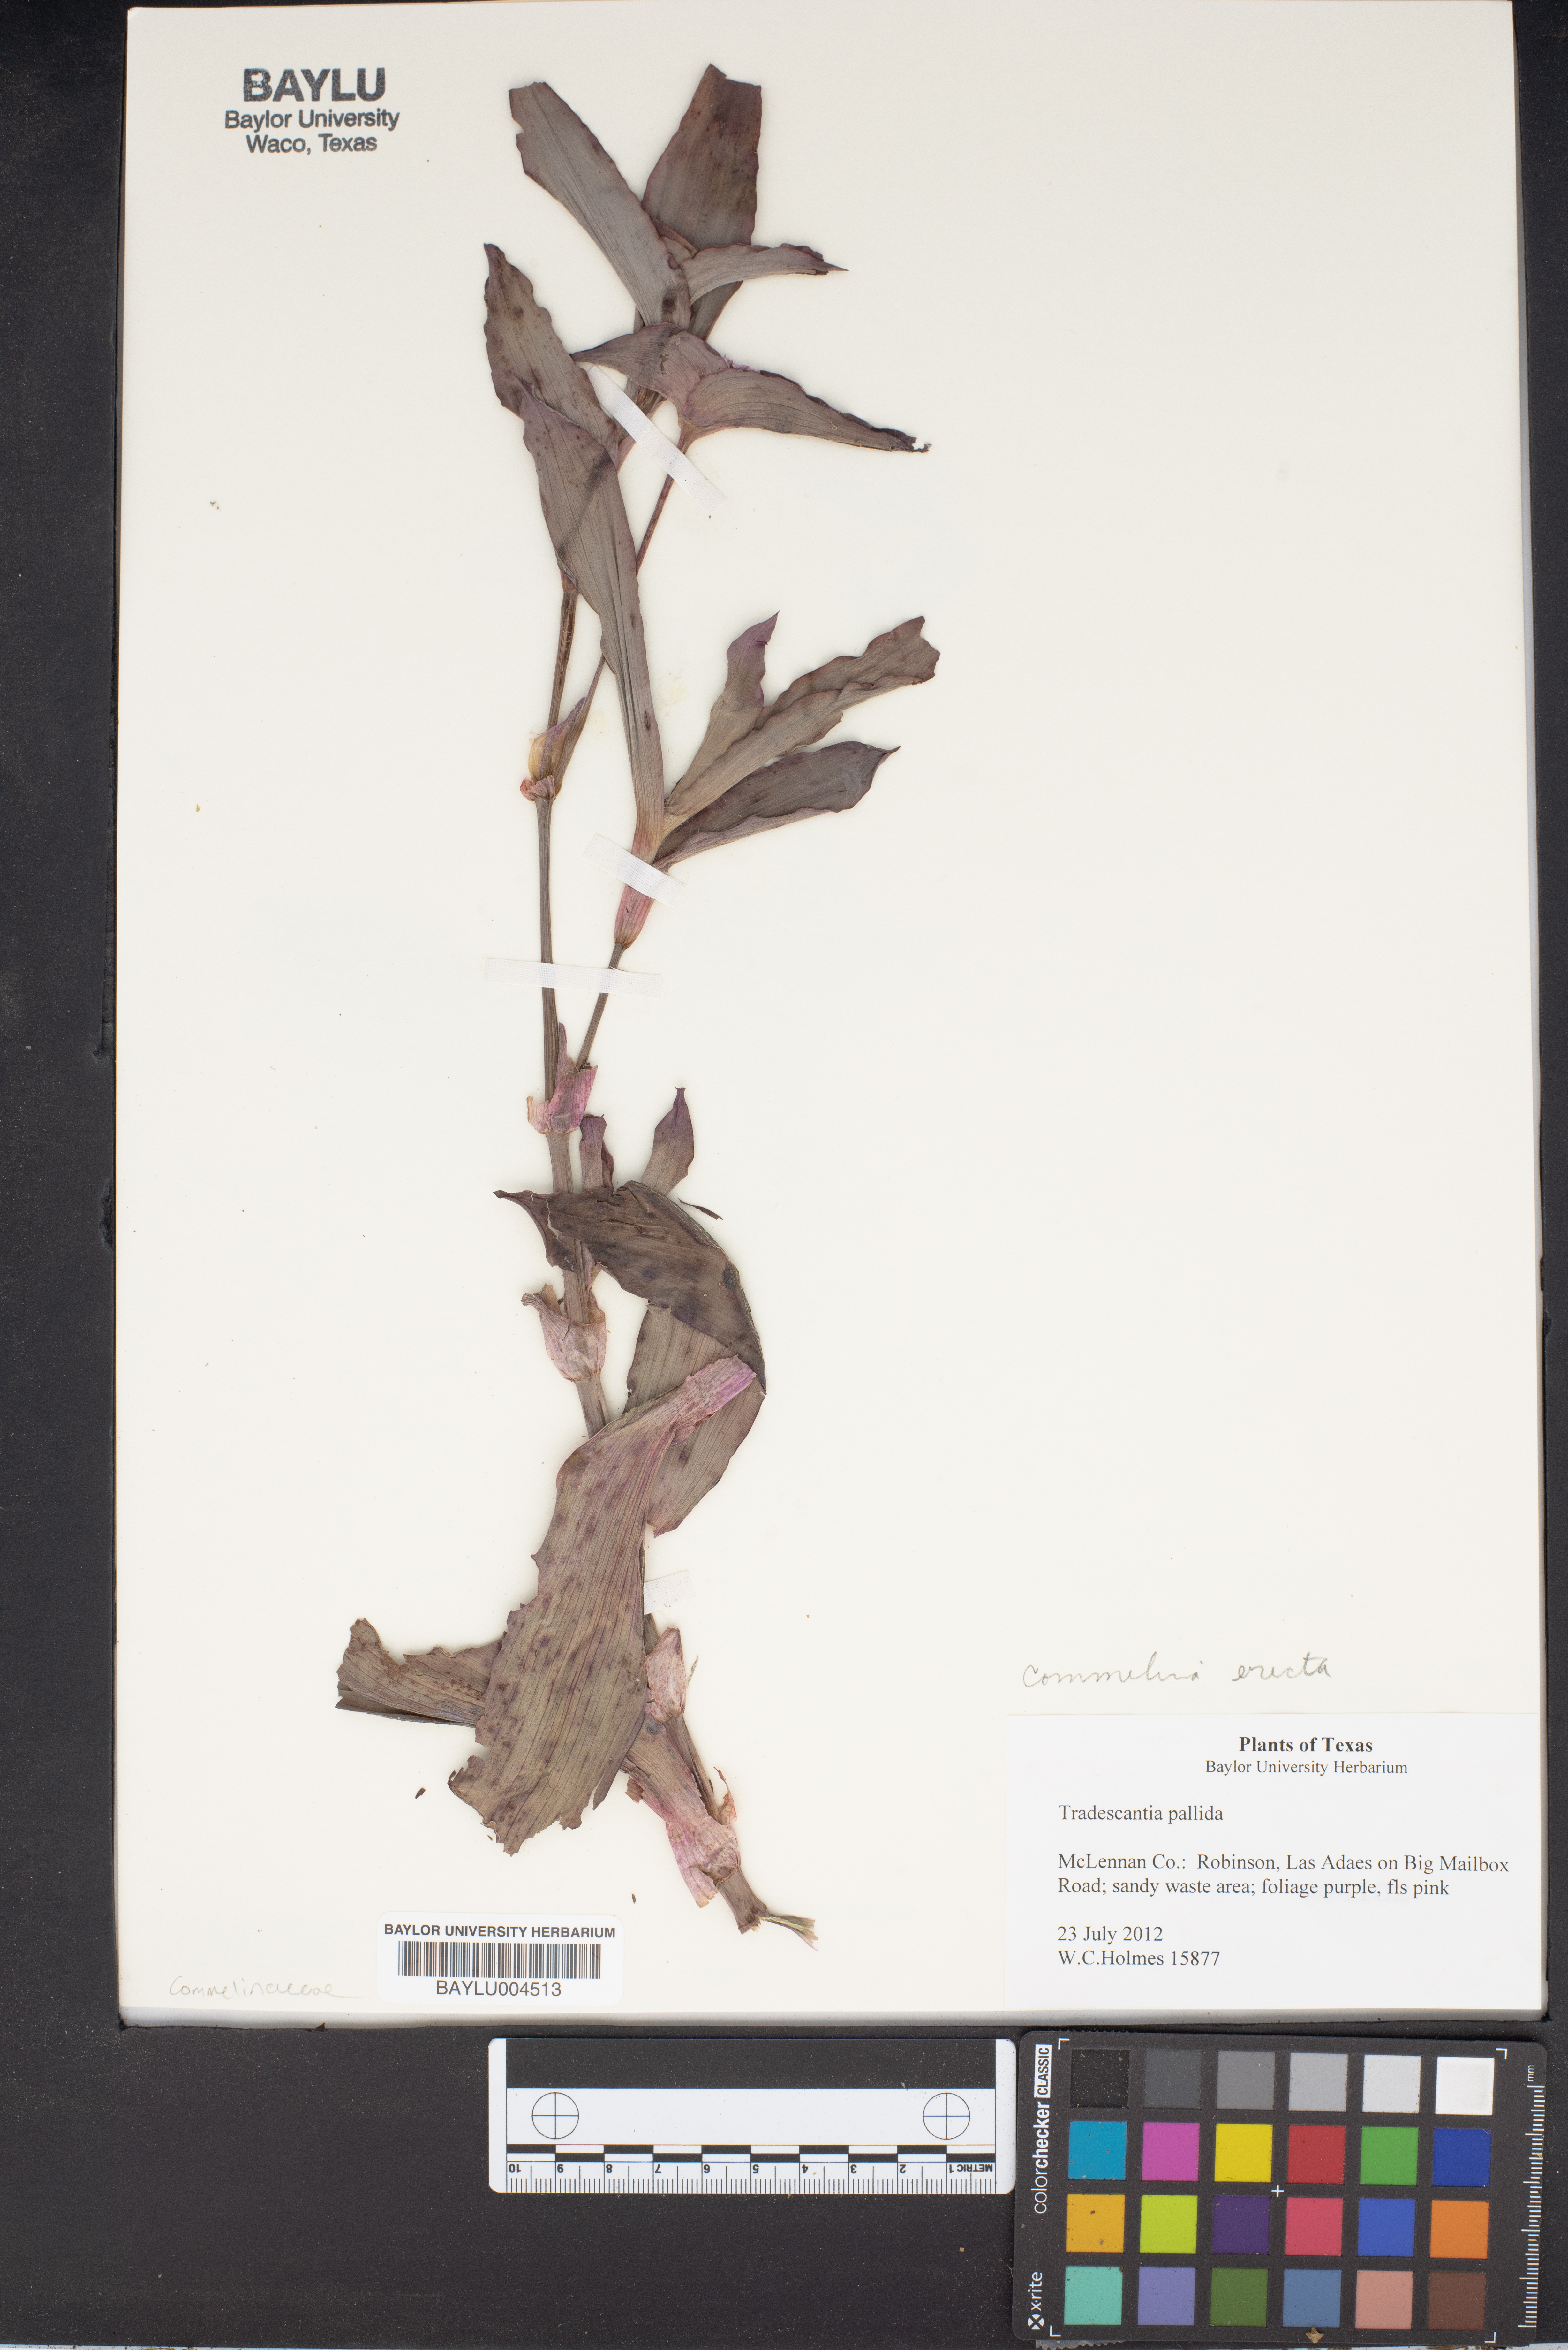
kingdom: Plantae
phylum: Tracheophyta
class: Liliopsida
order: Commelinales
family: Commelinaceae
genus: Commelina
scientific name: Commelina erecta
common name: Blousel blommetjie
